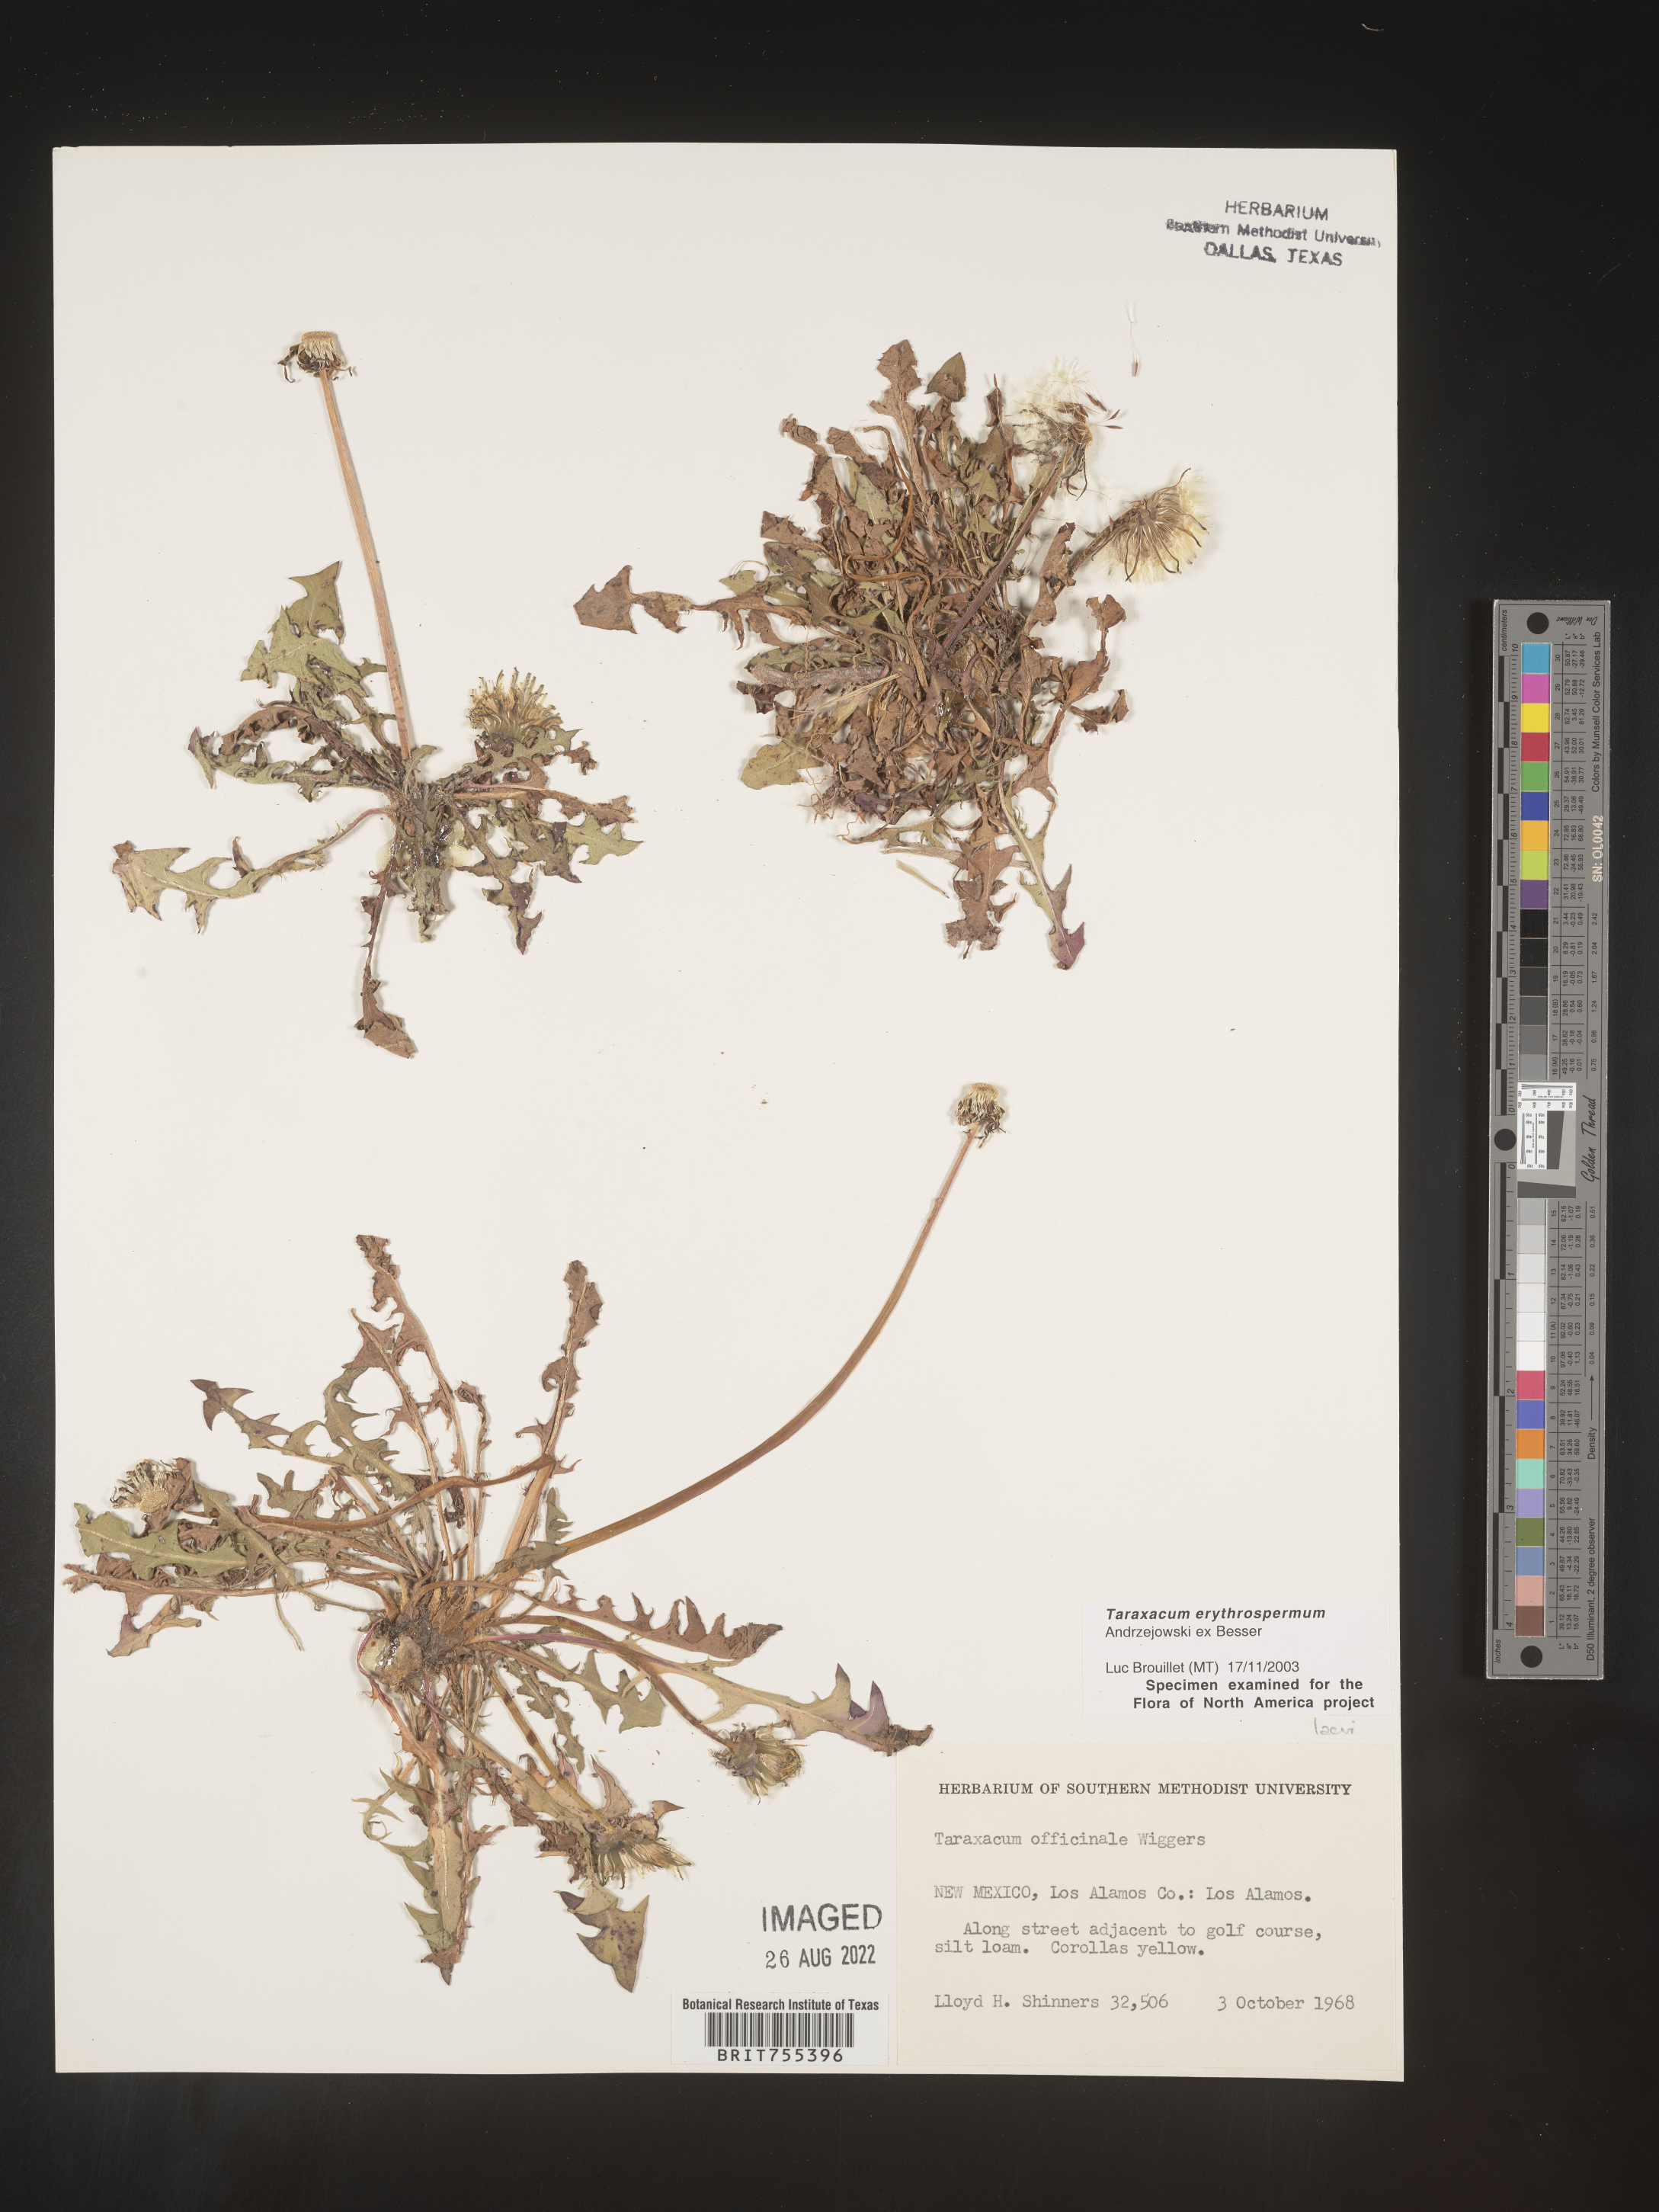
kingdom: Plantae
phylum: Tracheophyta
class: Magnoliopsida
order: Asterales
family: Asteraceae
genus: Taraxacum
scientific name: Taraxacum erythrospermum
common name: Rock dandelion
